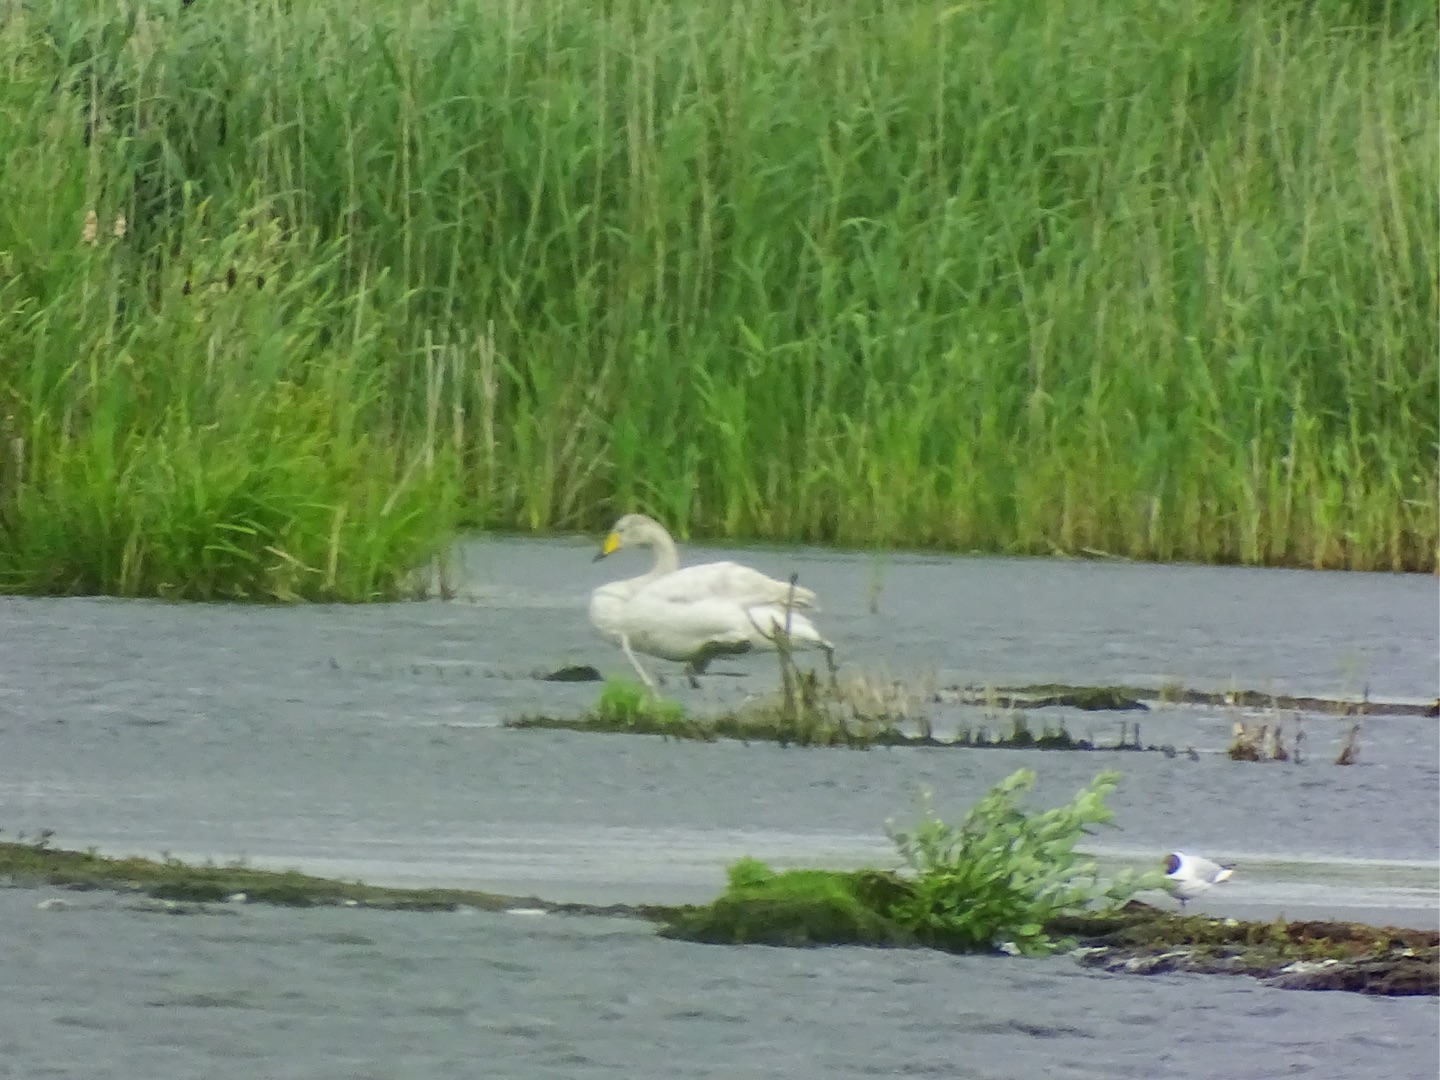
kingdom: Animalia
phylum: Chordata
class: Aves
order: Anseriformes
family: Anatidae
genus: Cygnus
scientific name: Cygnus cygnus
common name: Sangsvane
